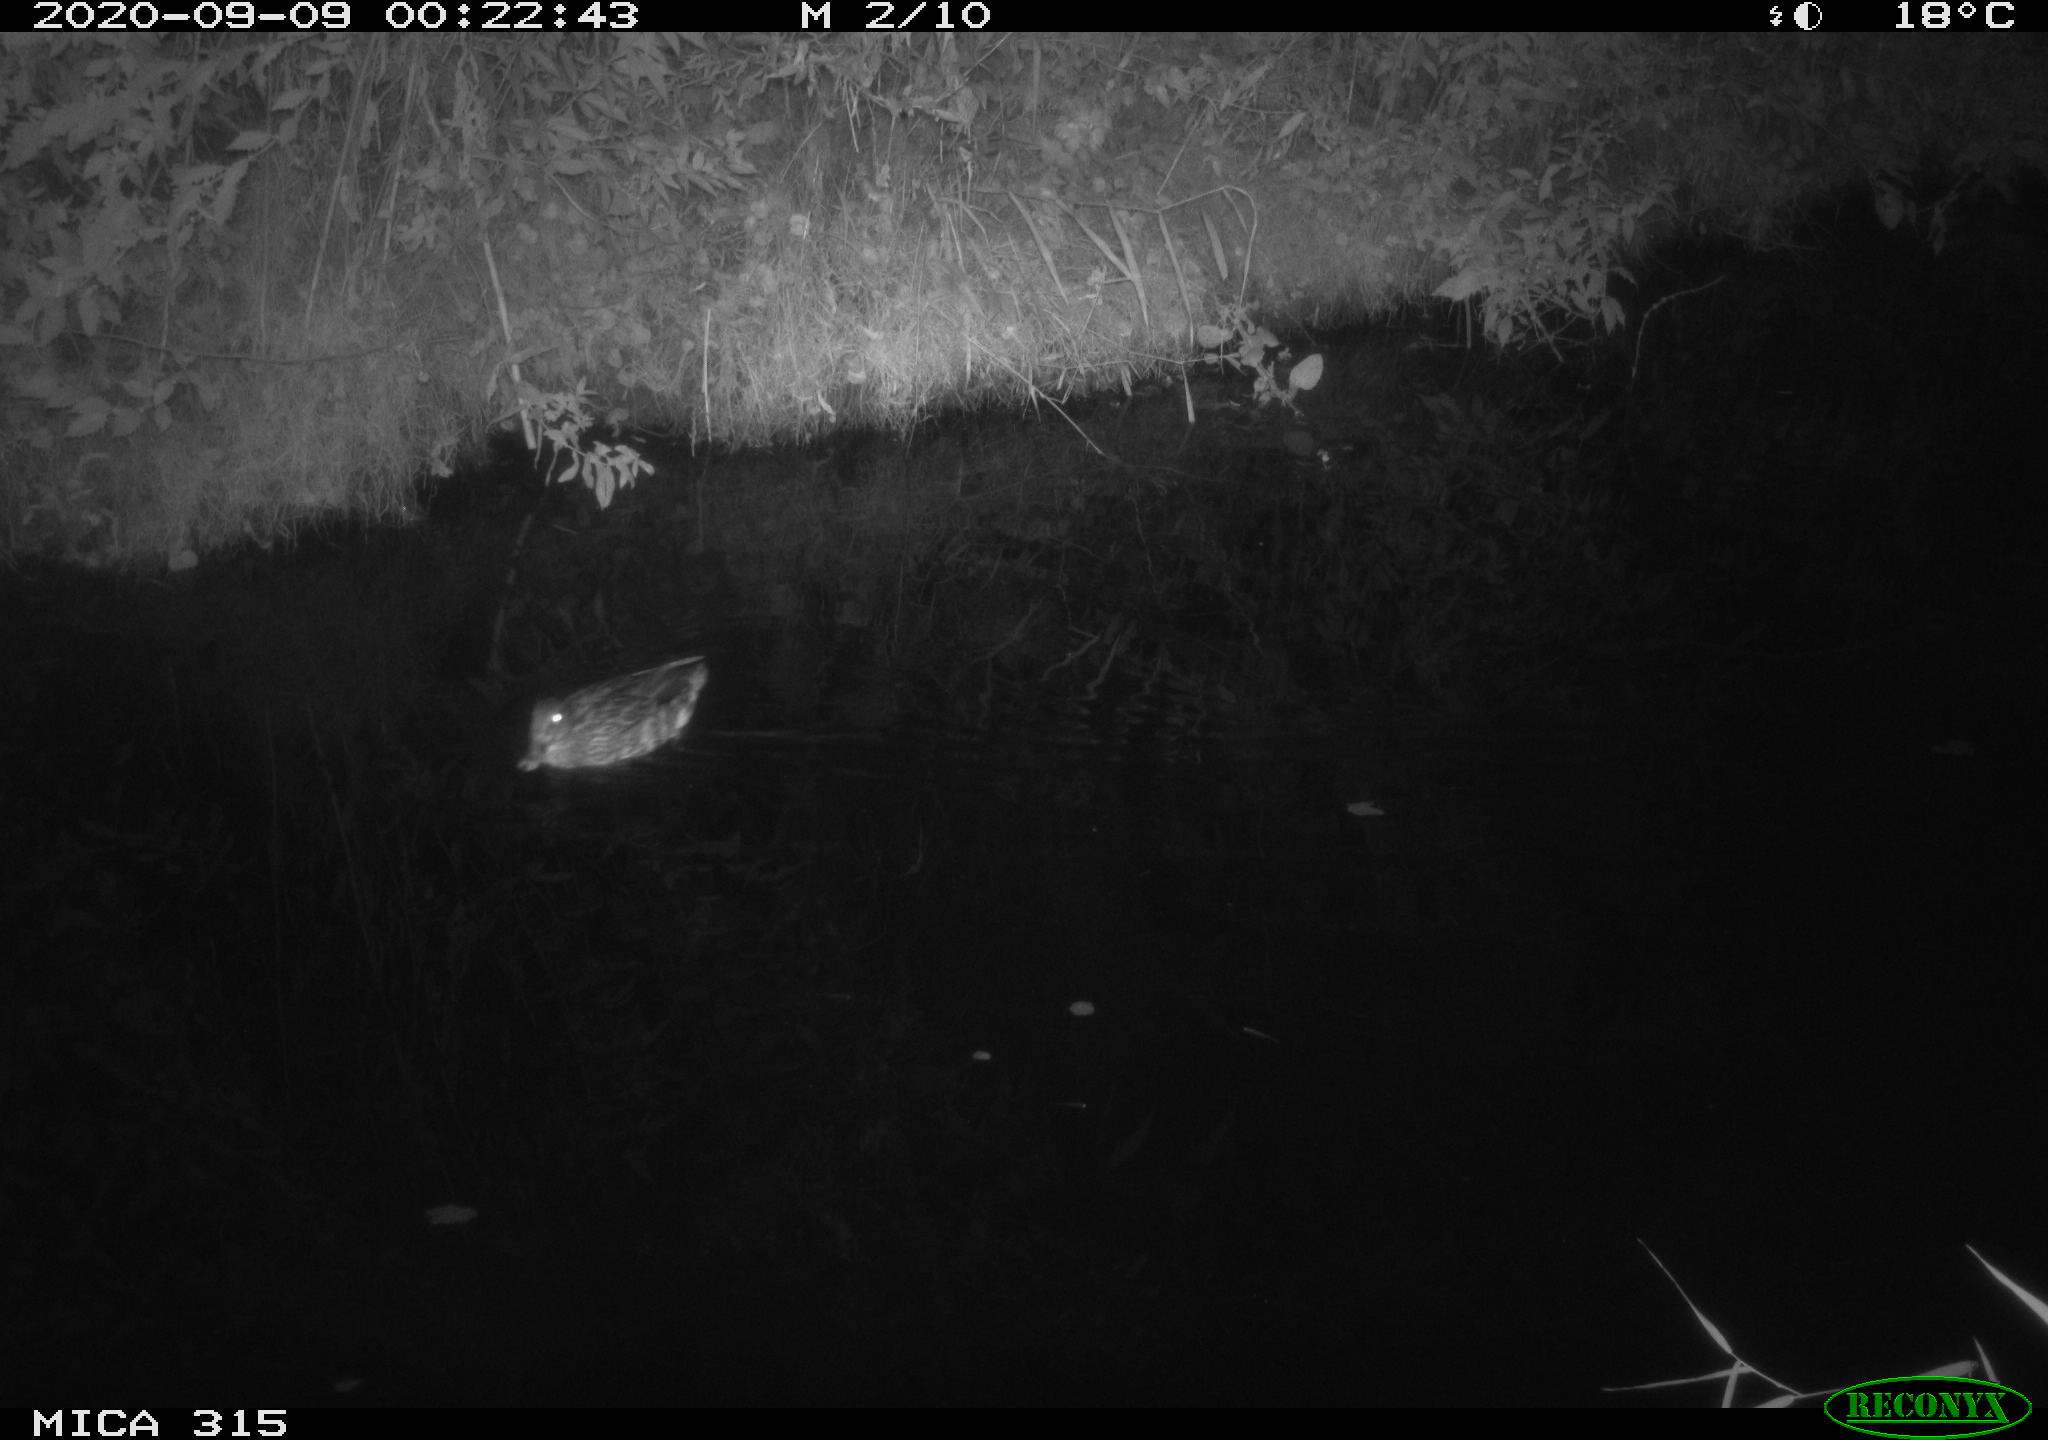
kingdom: Animalia
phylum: Chordata
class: Aves
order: Anseriformes
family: Anatidae
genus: Anas
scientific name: Anas platyrhynchos
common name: Mallard
